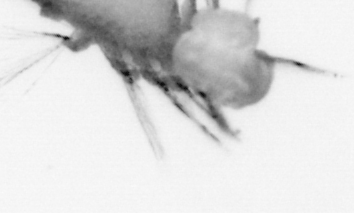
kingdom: Animalia
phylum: Annelida
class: Polychaeta
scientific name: Polychaeta
